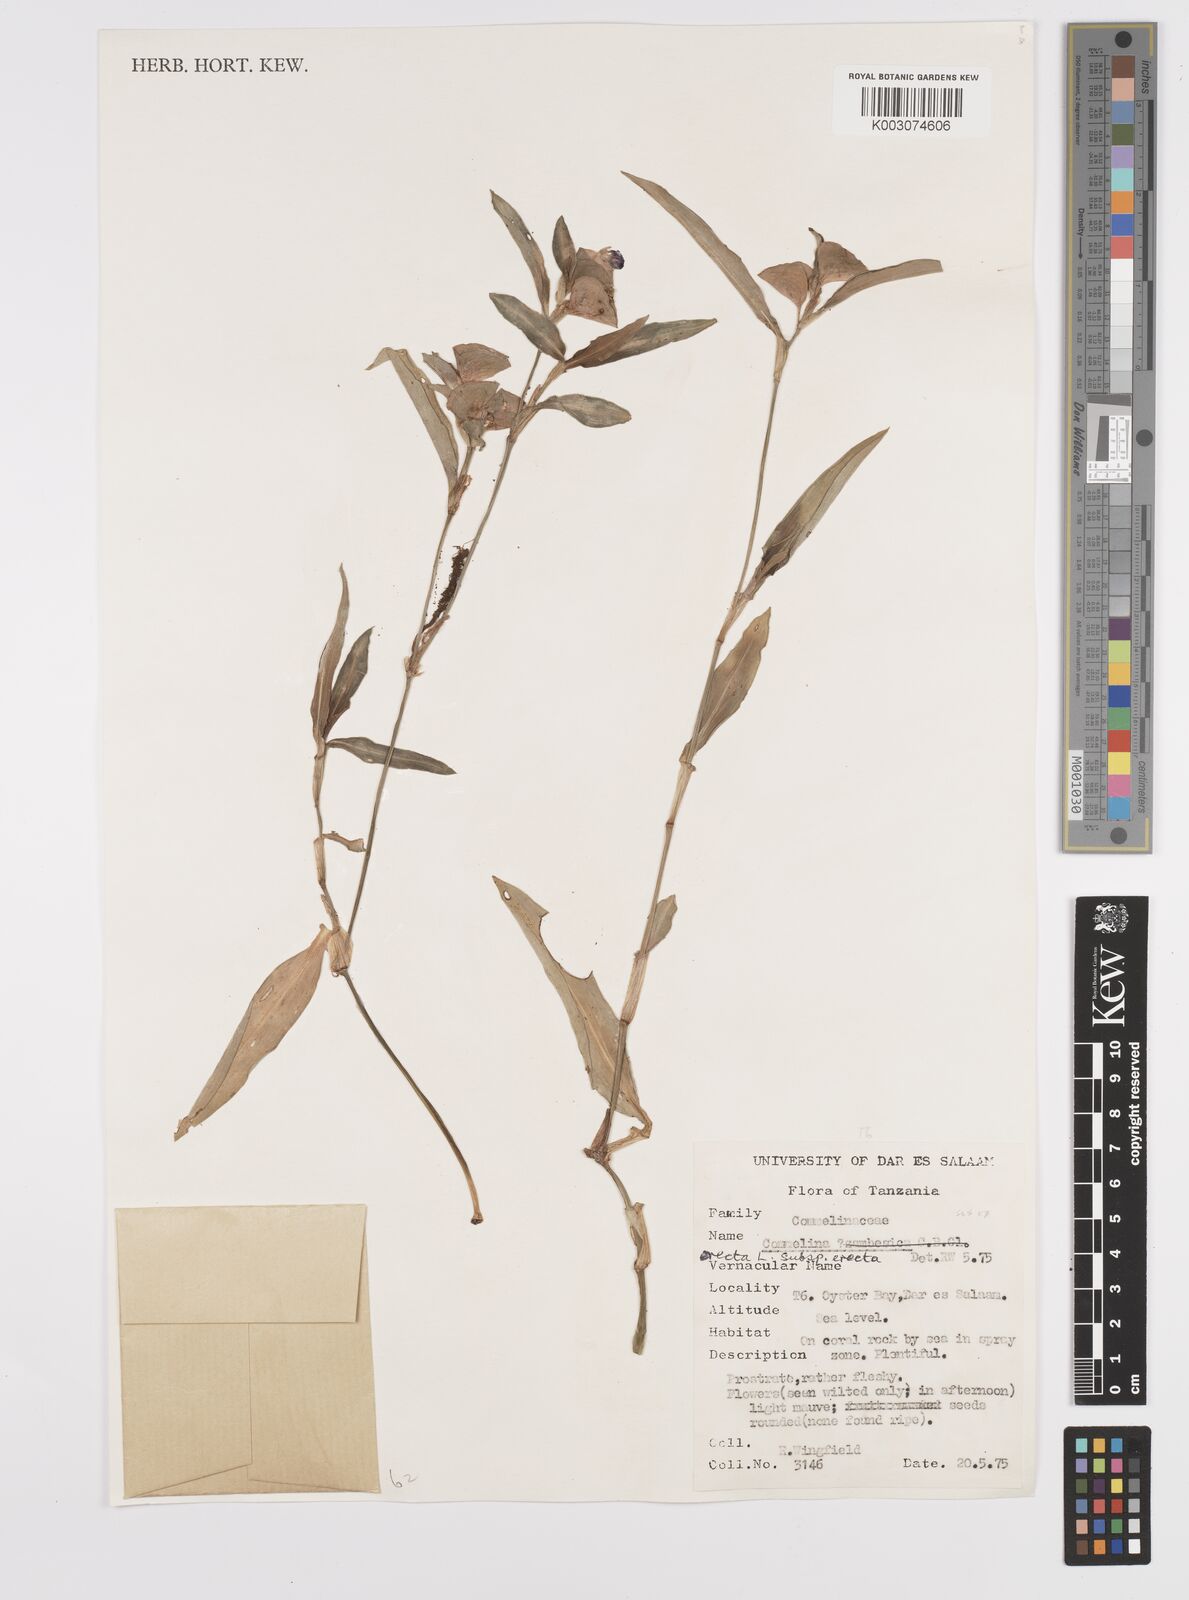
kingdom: Plantae
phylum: Tracheophyta
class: Liliopsida
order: Commelinales
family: Commelinaceae
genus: Commelina
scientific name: Commelina erecta
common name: Blousel blommetjie
